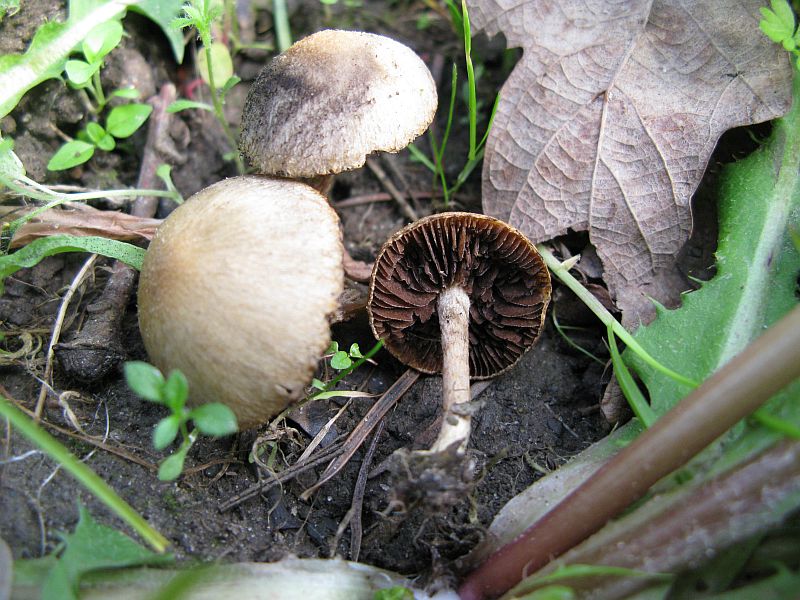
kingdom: Fungi
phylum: Basidiomycota
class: Agaricomycetes
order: Agaricales
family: Psathyrellaceae
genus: Lacrymaria
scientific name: Lacrymaria lacrymabunda
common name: grædende mørkhat
